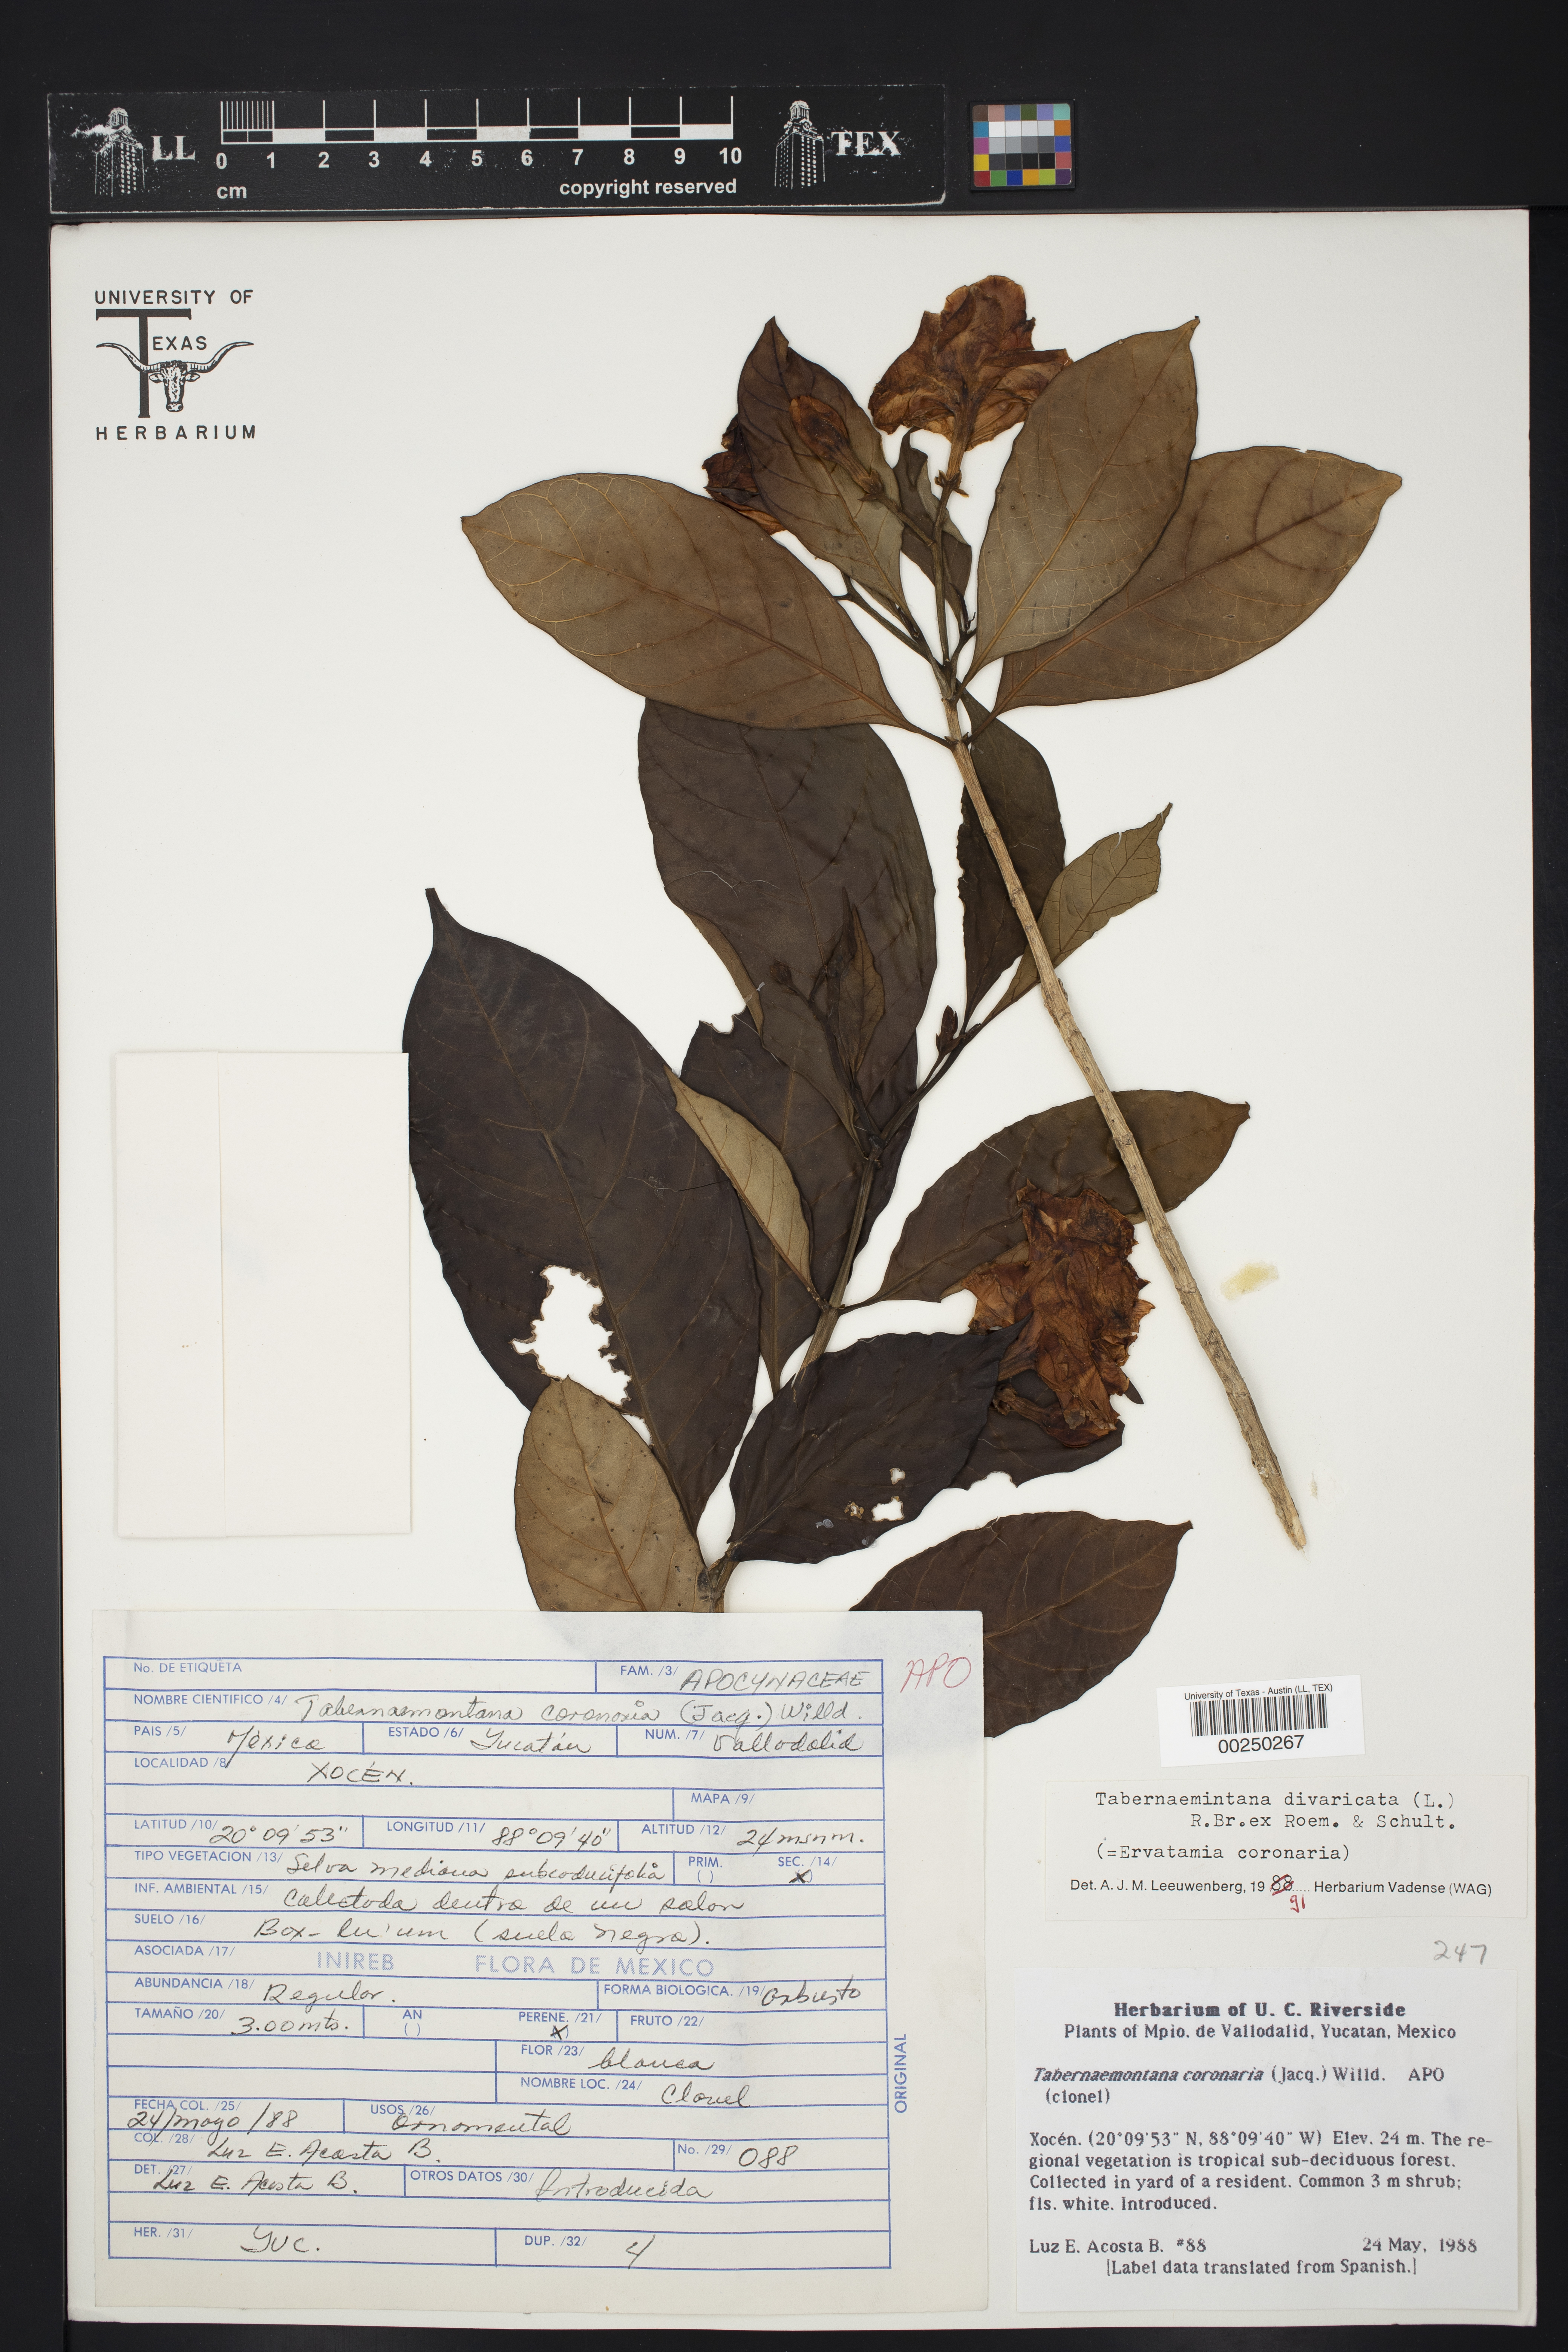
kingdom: Plantae
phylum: Tracheophyta
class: Magnoliopsida
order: Gentianales
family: Apocynaceae
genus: Tabernaemontana
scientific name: Tabernaemontana divaricata
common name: Pinwheelflower
